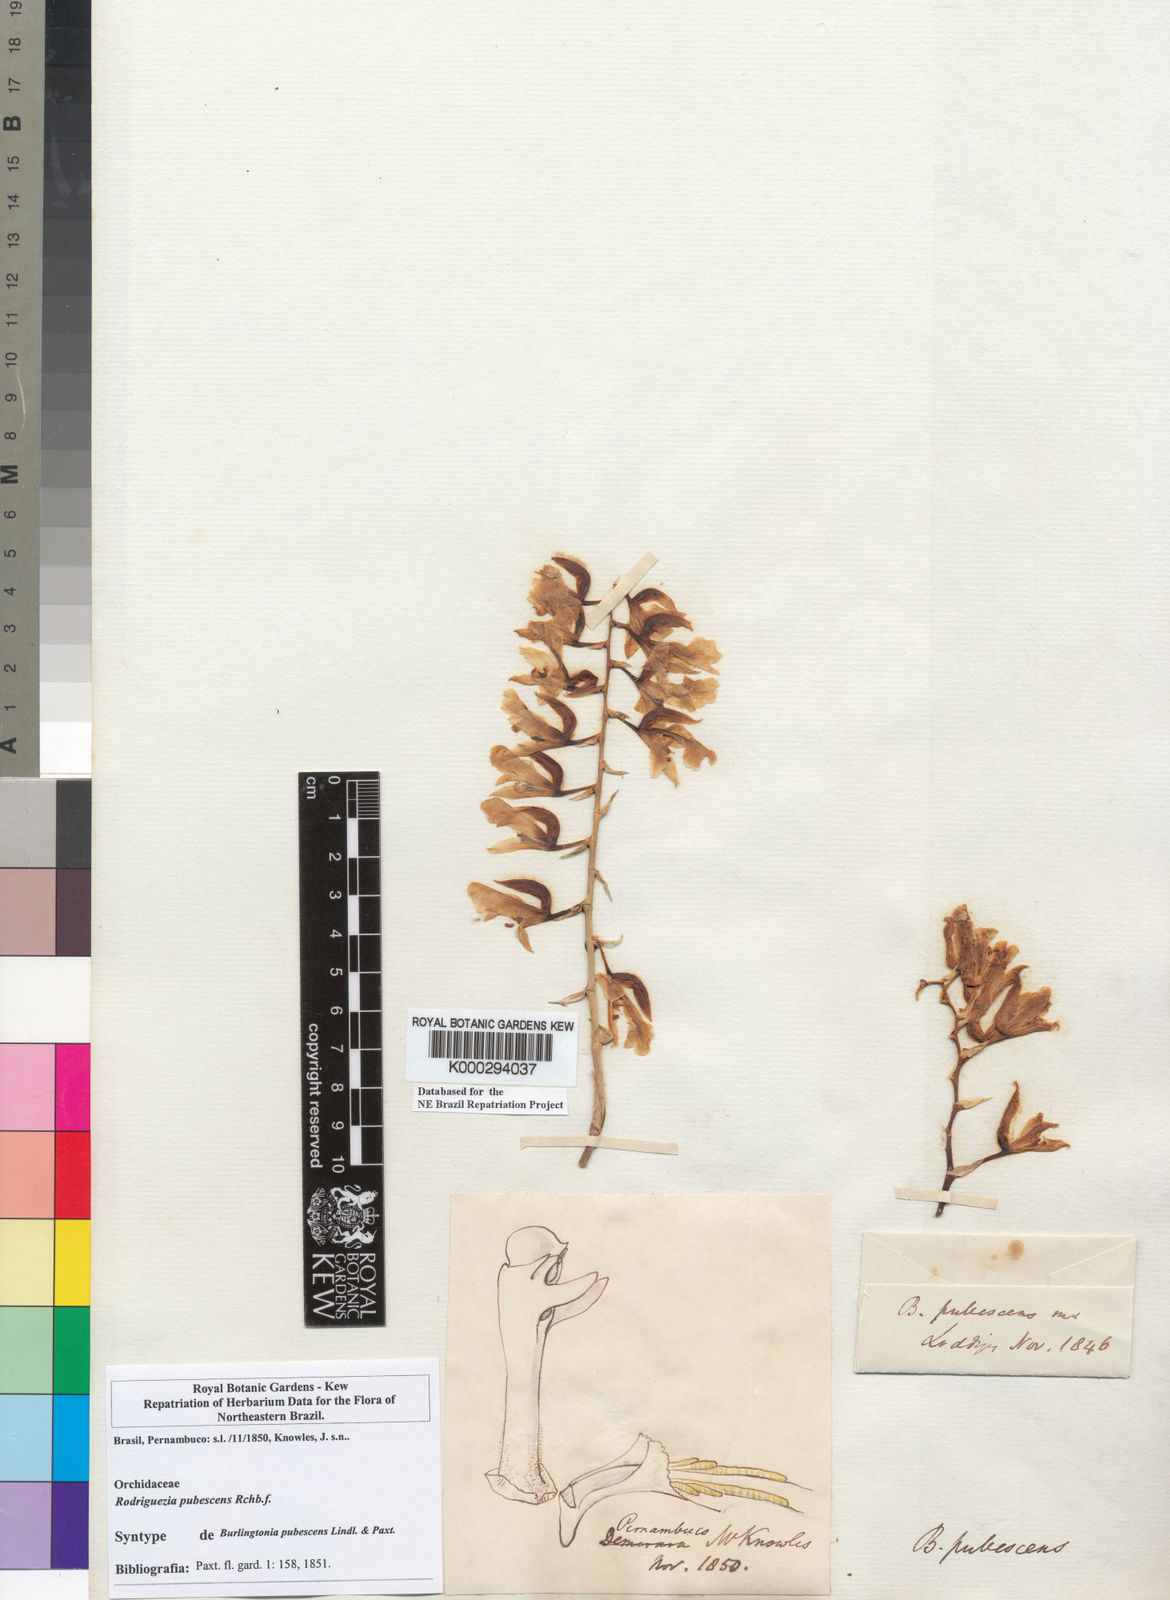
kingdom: Plantae
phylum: Tracheophyta
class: Liliopsida
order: Asparagales
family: Orchidaceae
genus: Rodriguezia
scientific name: Rodriguezia pubescens
